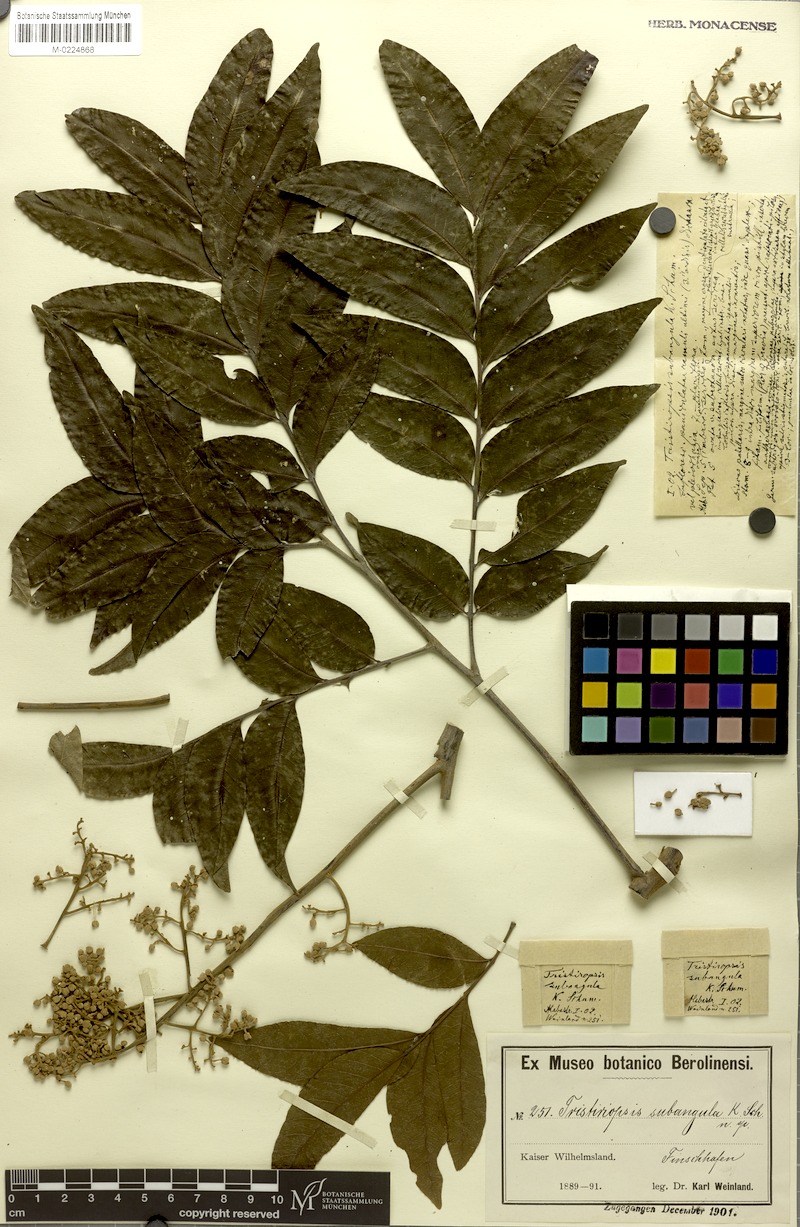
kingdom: Plantae
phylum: Tracheophyta
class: Magnoliopsida
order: Sapindales
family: Sapindaceae
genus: Tristiropsis
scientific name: Tristiropsis acutangula
